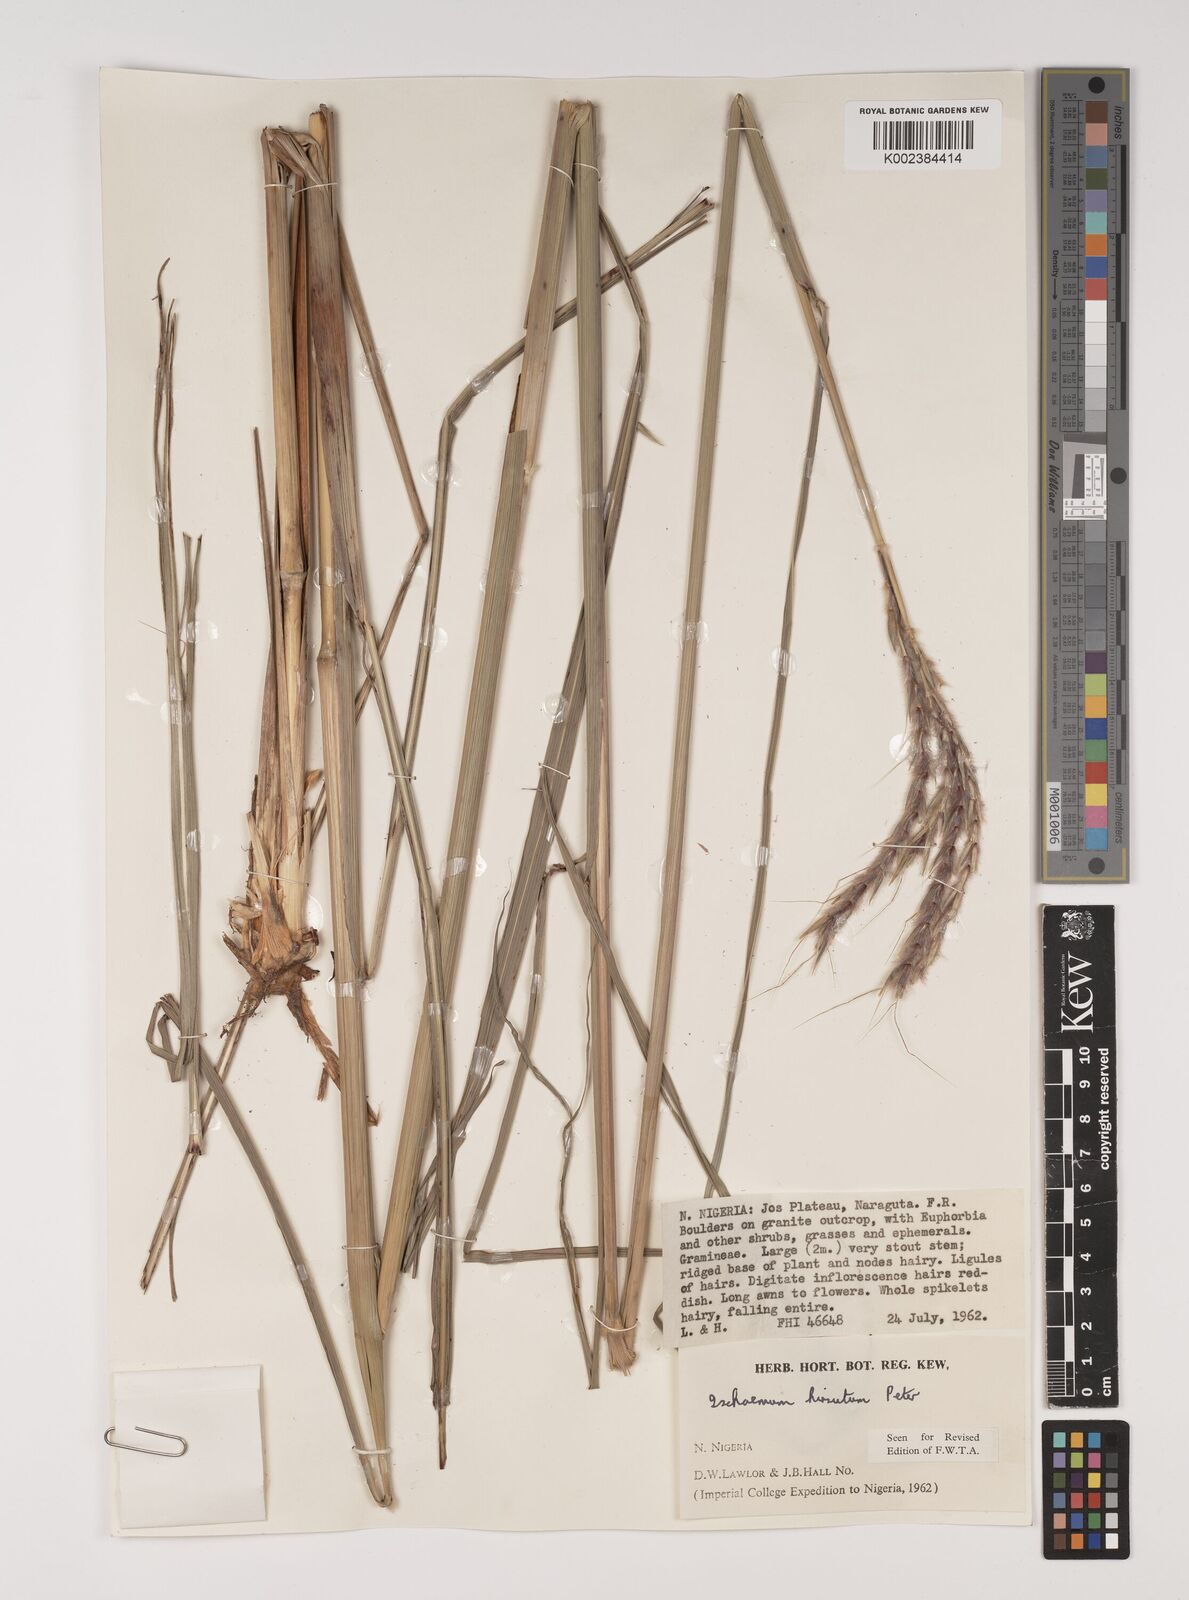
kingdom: Plantae
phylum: Tracheophyta
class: Liliopsida
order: Poales
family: Poaceae
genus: Ischaemum
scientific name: Ischaemum amethystinum
